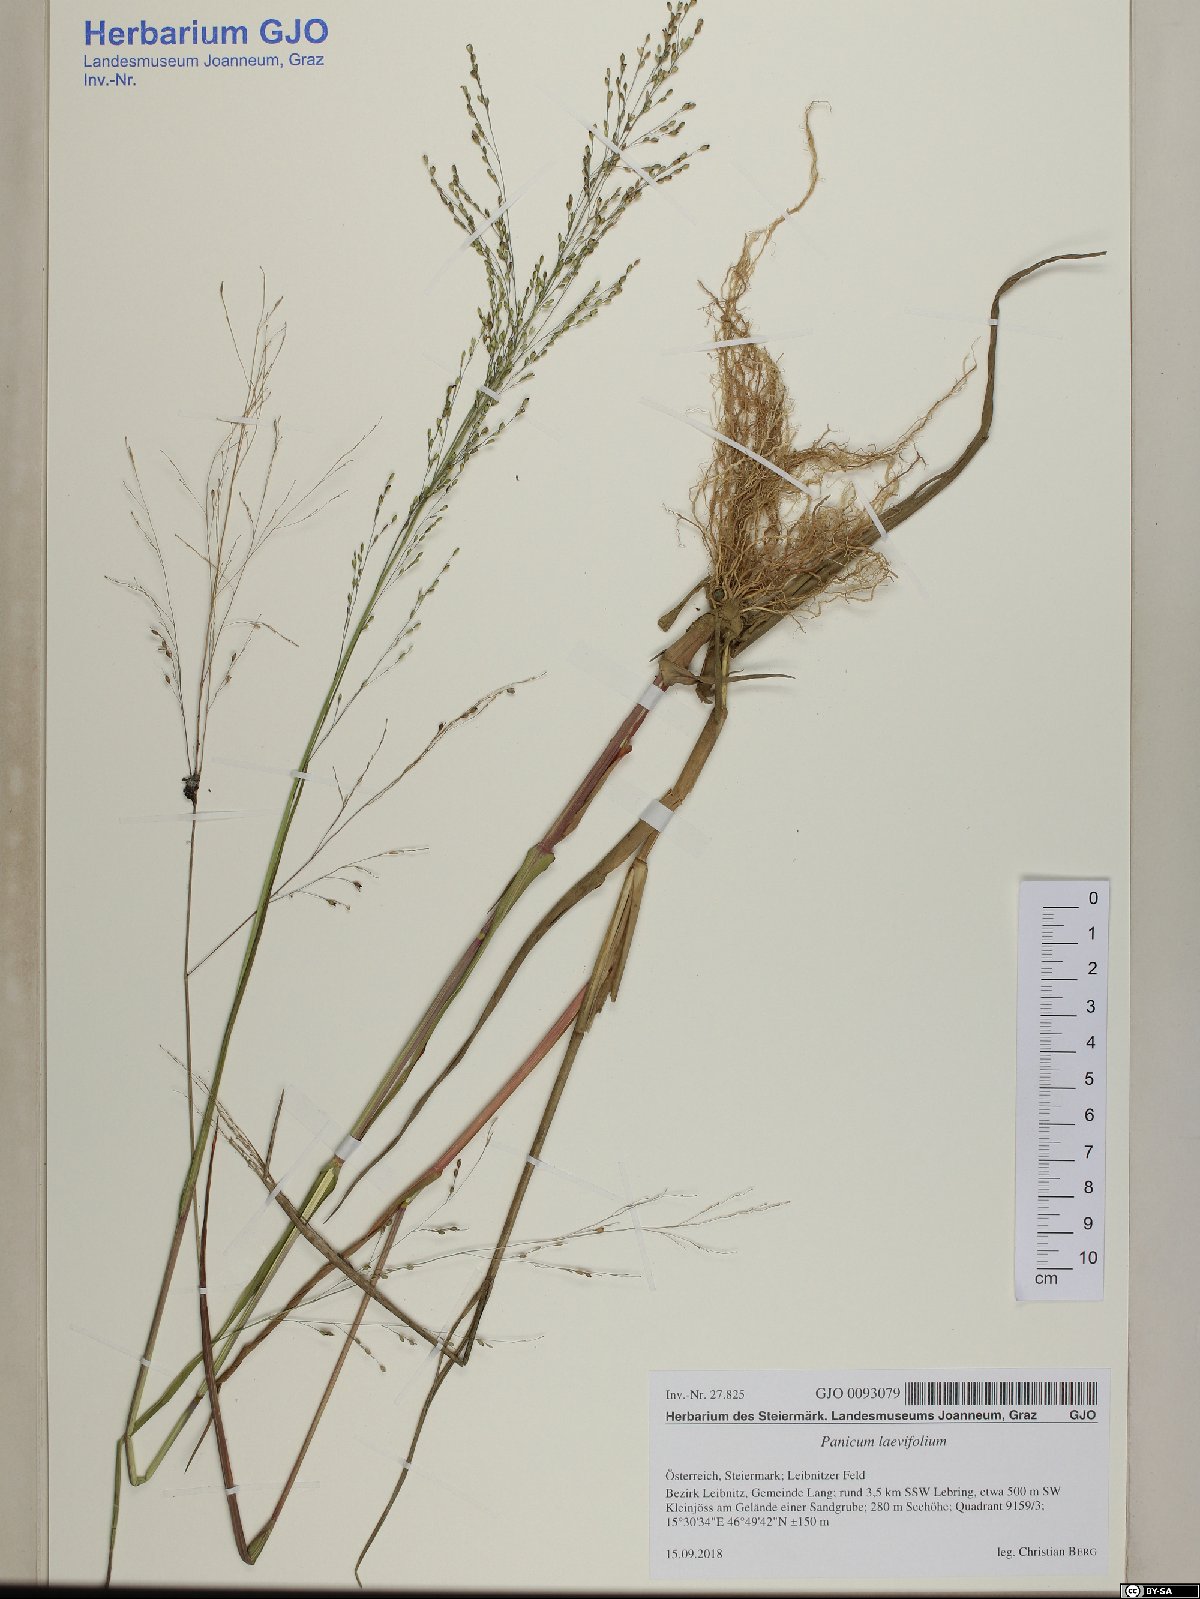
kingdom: Plantae
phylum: Tracheophyta
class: Liliopsida
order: Poales
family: Poaceae
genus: Panicum
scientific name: Panicum schinzii
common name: Sweet grass
